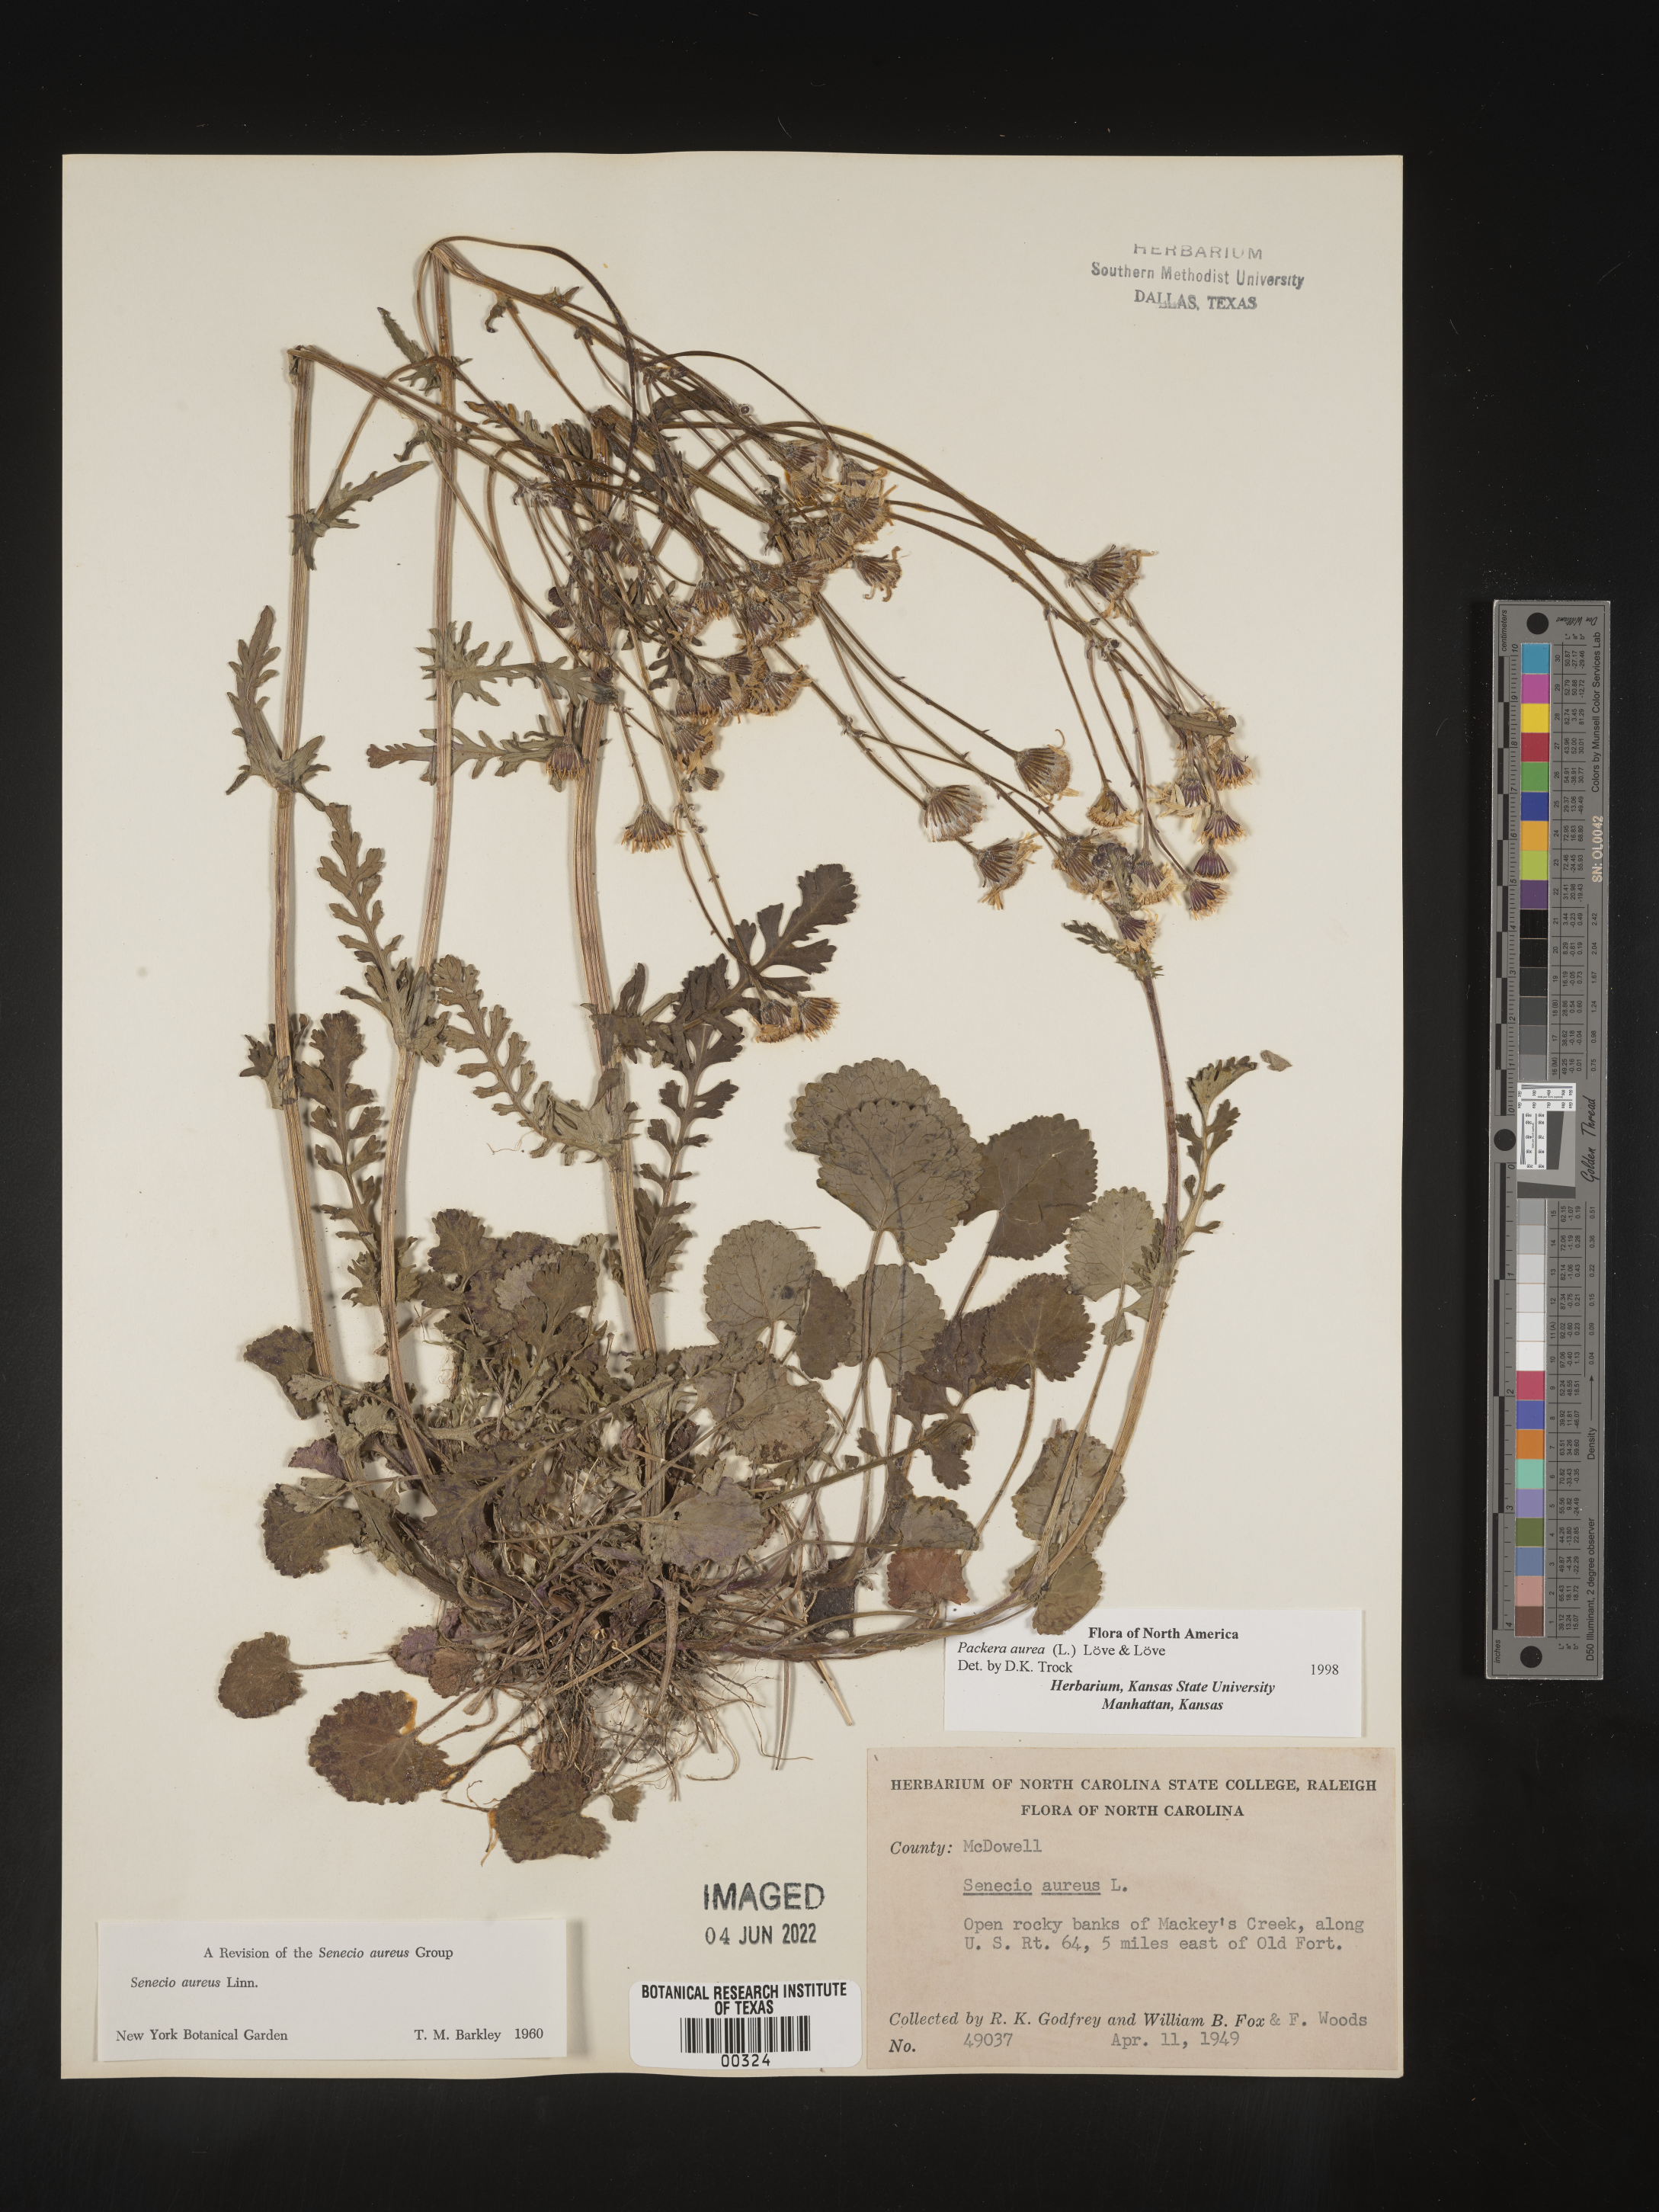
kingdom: Plantae
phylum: Tracheophyta
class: Magnoliopsida
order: Asterales
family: Asteraceae
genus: Packera
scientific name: Packera aurea
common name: Golden groundsel
